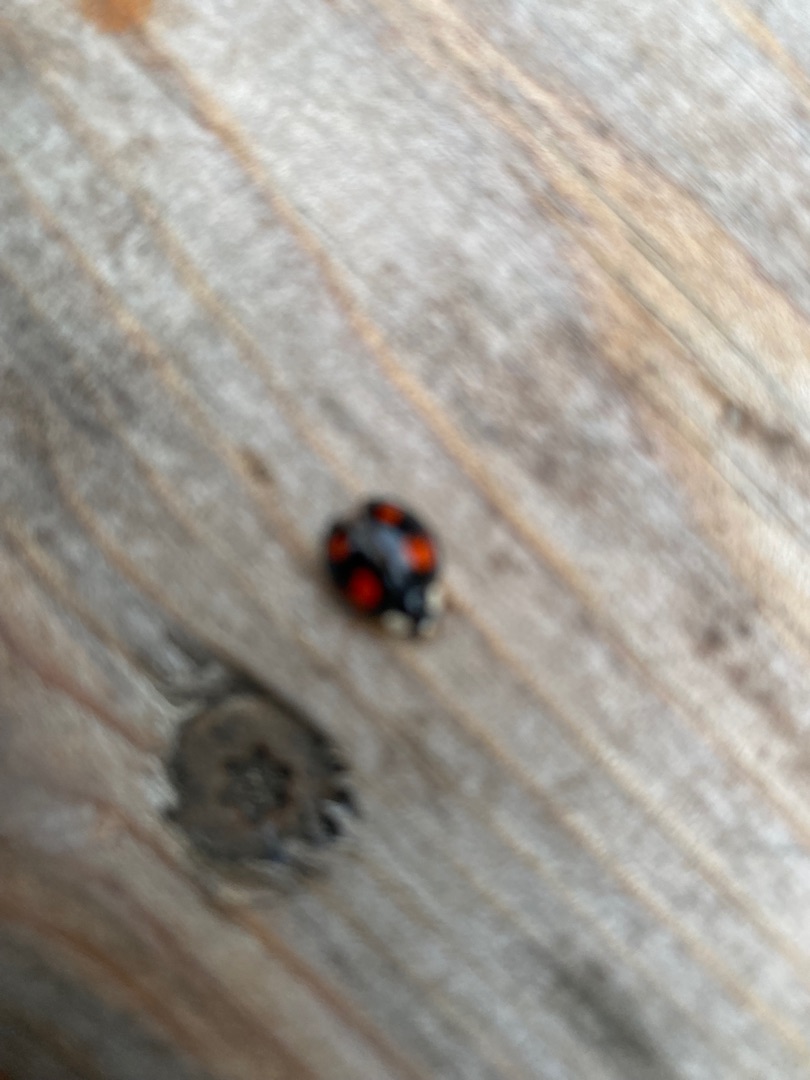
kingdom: Animalia
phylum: Arthropoda
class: Insecta
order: Coleoptera
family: Coccinellidae
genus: Harmonia
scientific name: Harmonia axyridis
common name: Harlekinmariehøne
